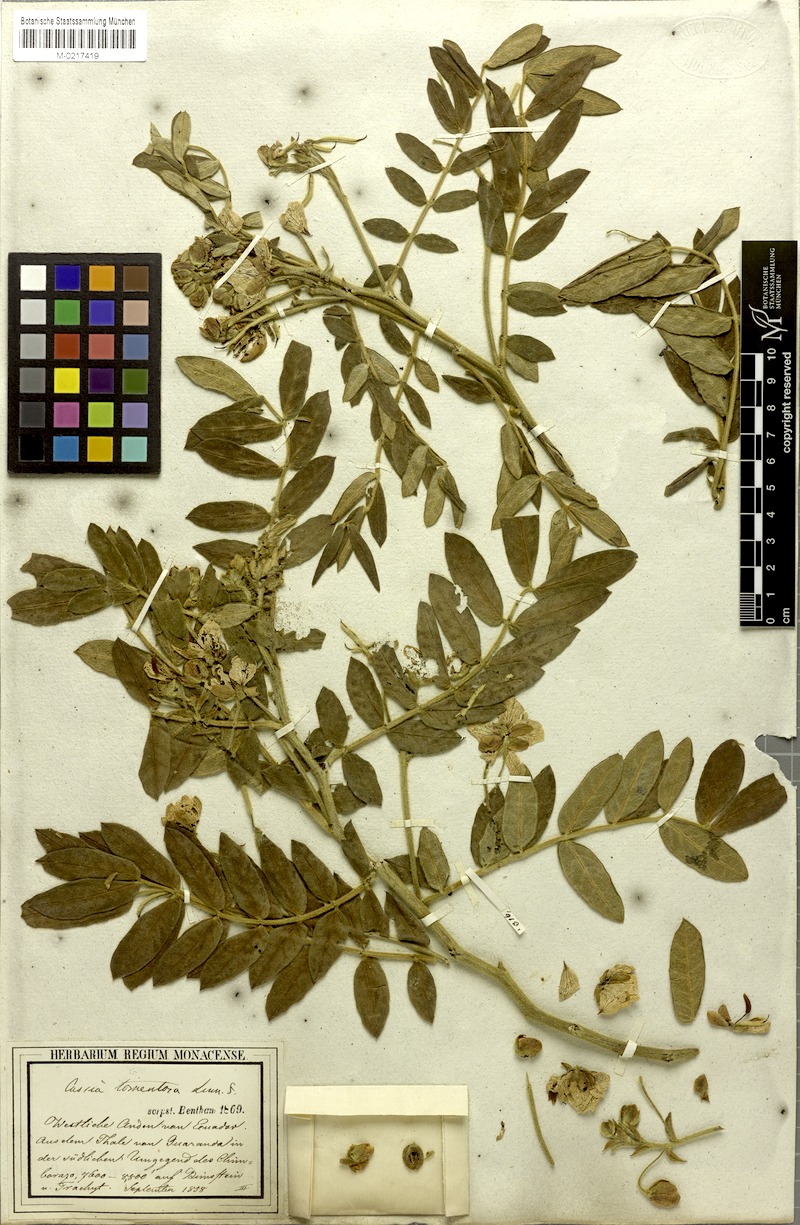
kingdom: Plantae
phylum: Tracheophyta
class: Magnoliopsida
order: Fabales
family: Fabaceae
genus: Senna
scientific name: Senna multiglandulosa
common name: Glandular senna
